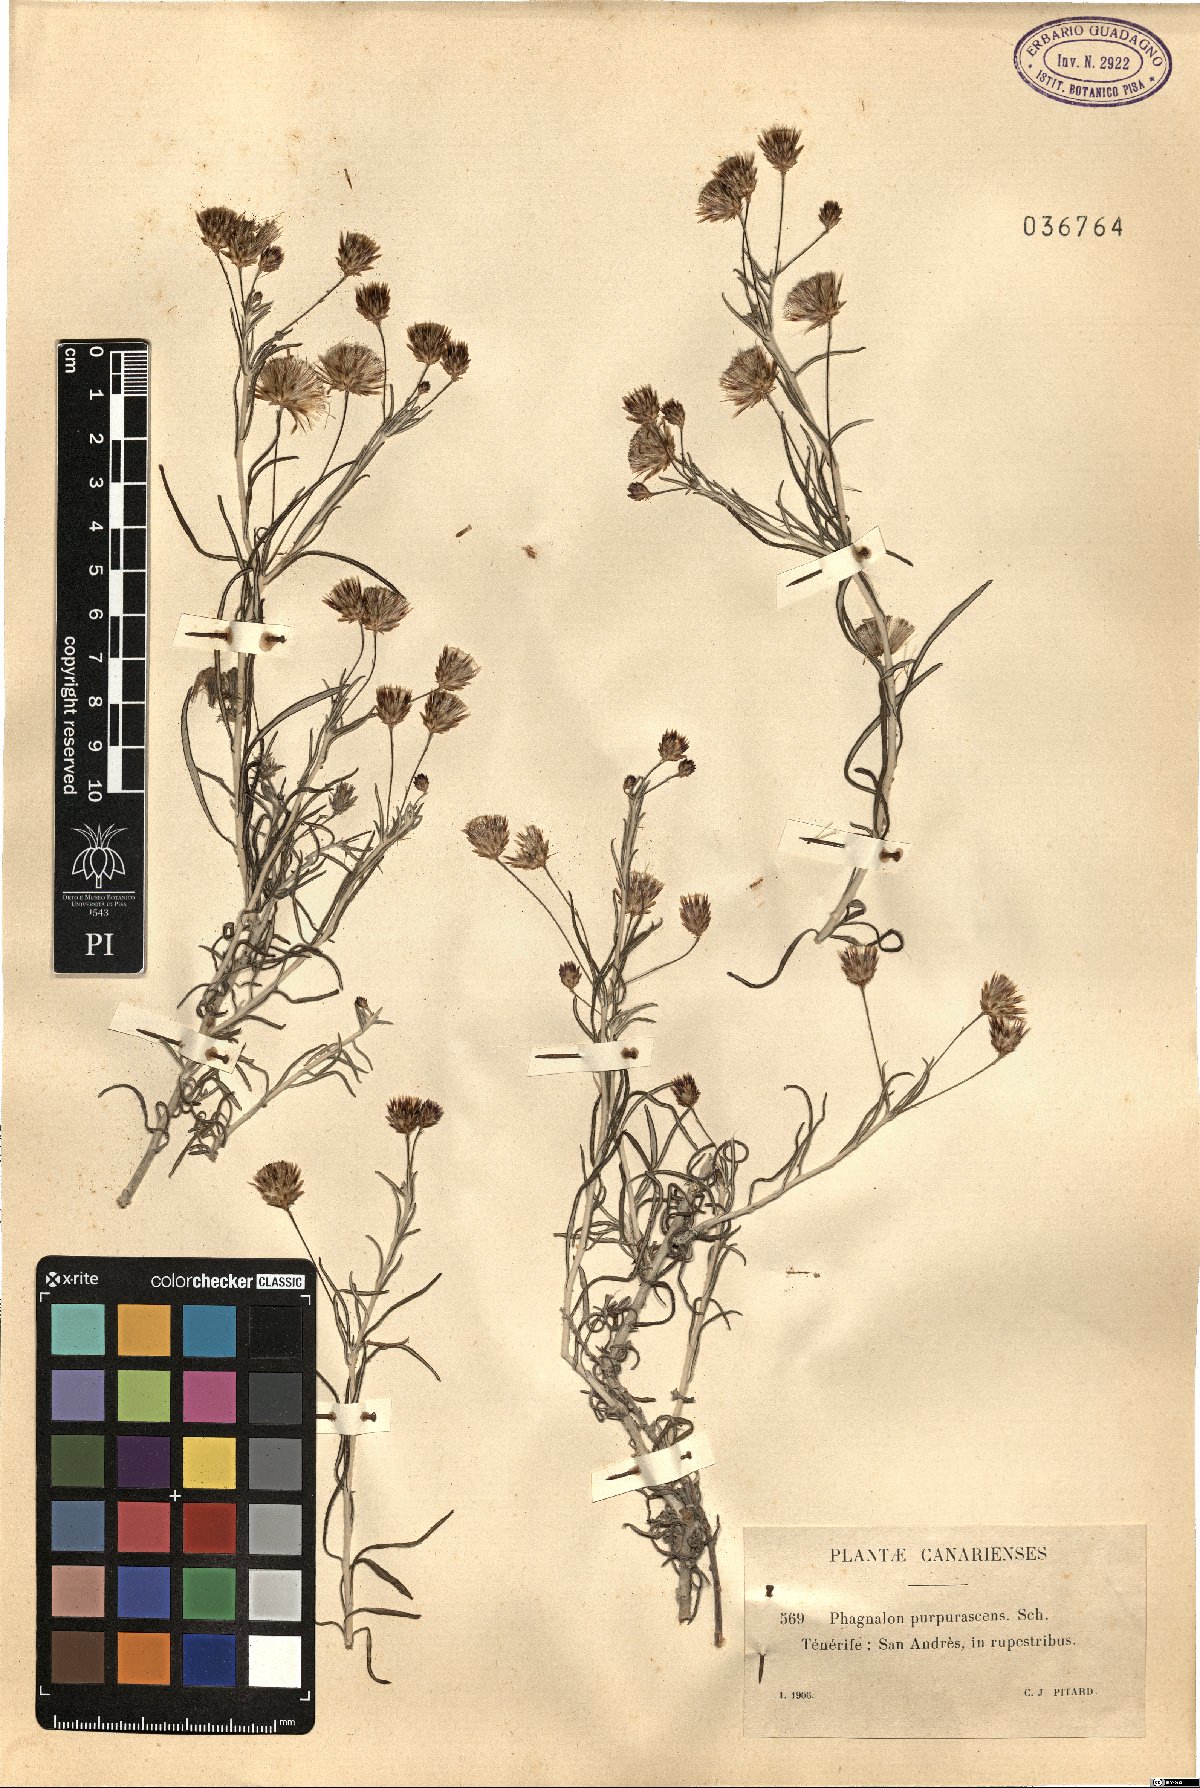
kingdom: Plantae
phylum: Tracheophyta
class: Magnoliopsida
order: Asterales
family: Asteraceae
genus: Phagnalon
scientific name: Phagnalon purpurascens
